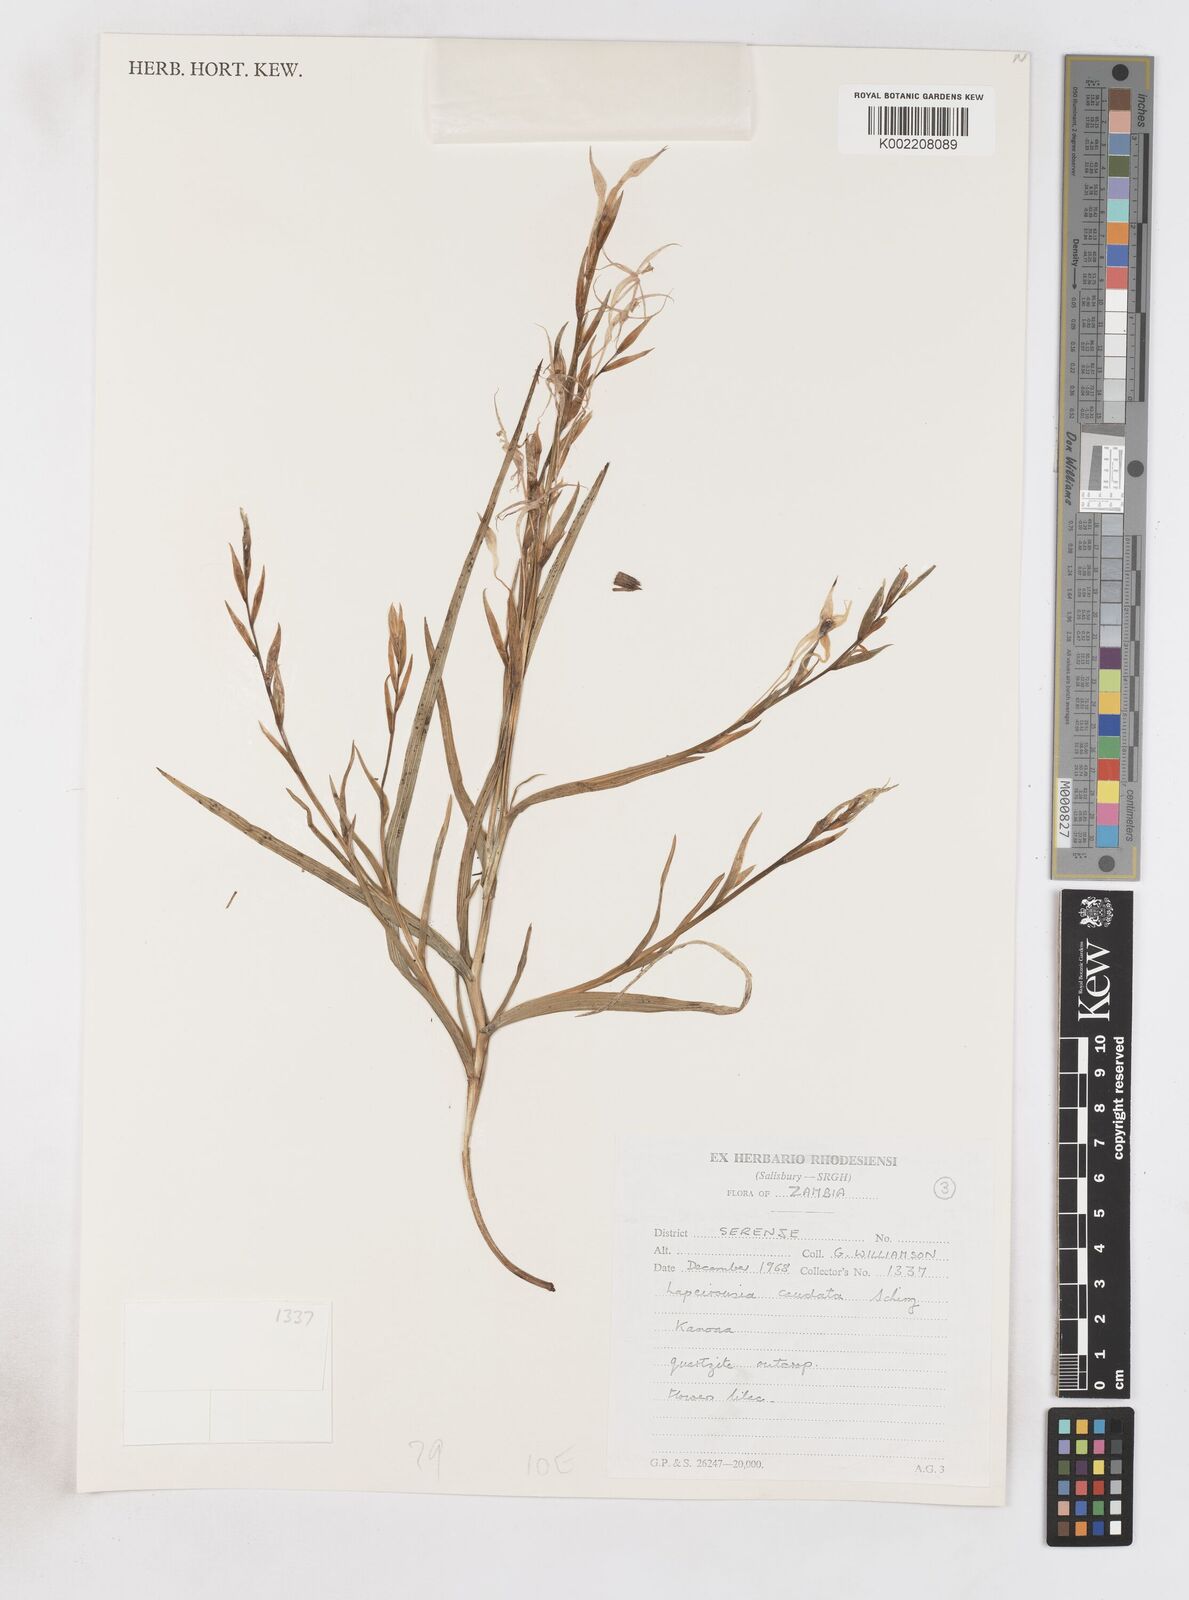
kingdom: Plantae
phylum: Tracheophyta
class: Liliopsida
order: Asparagales
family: Iridaceae
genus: Lapeirousia
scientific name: Lapeirousia caudata
